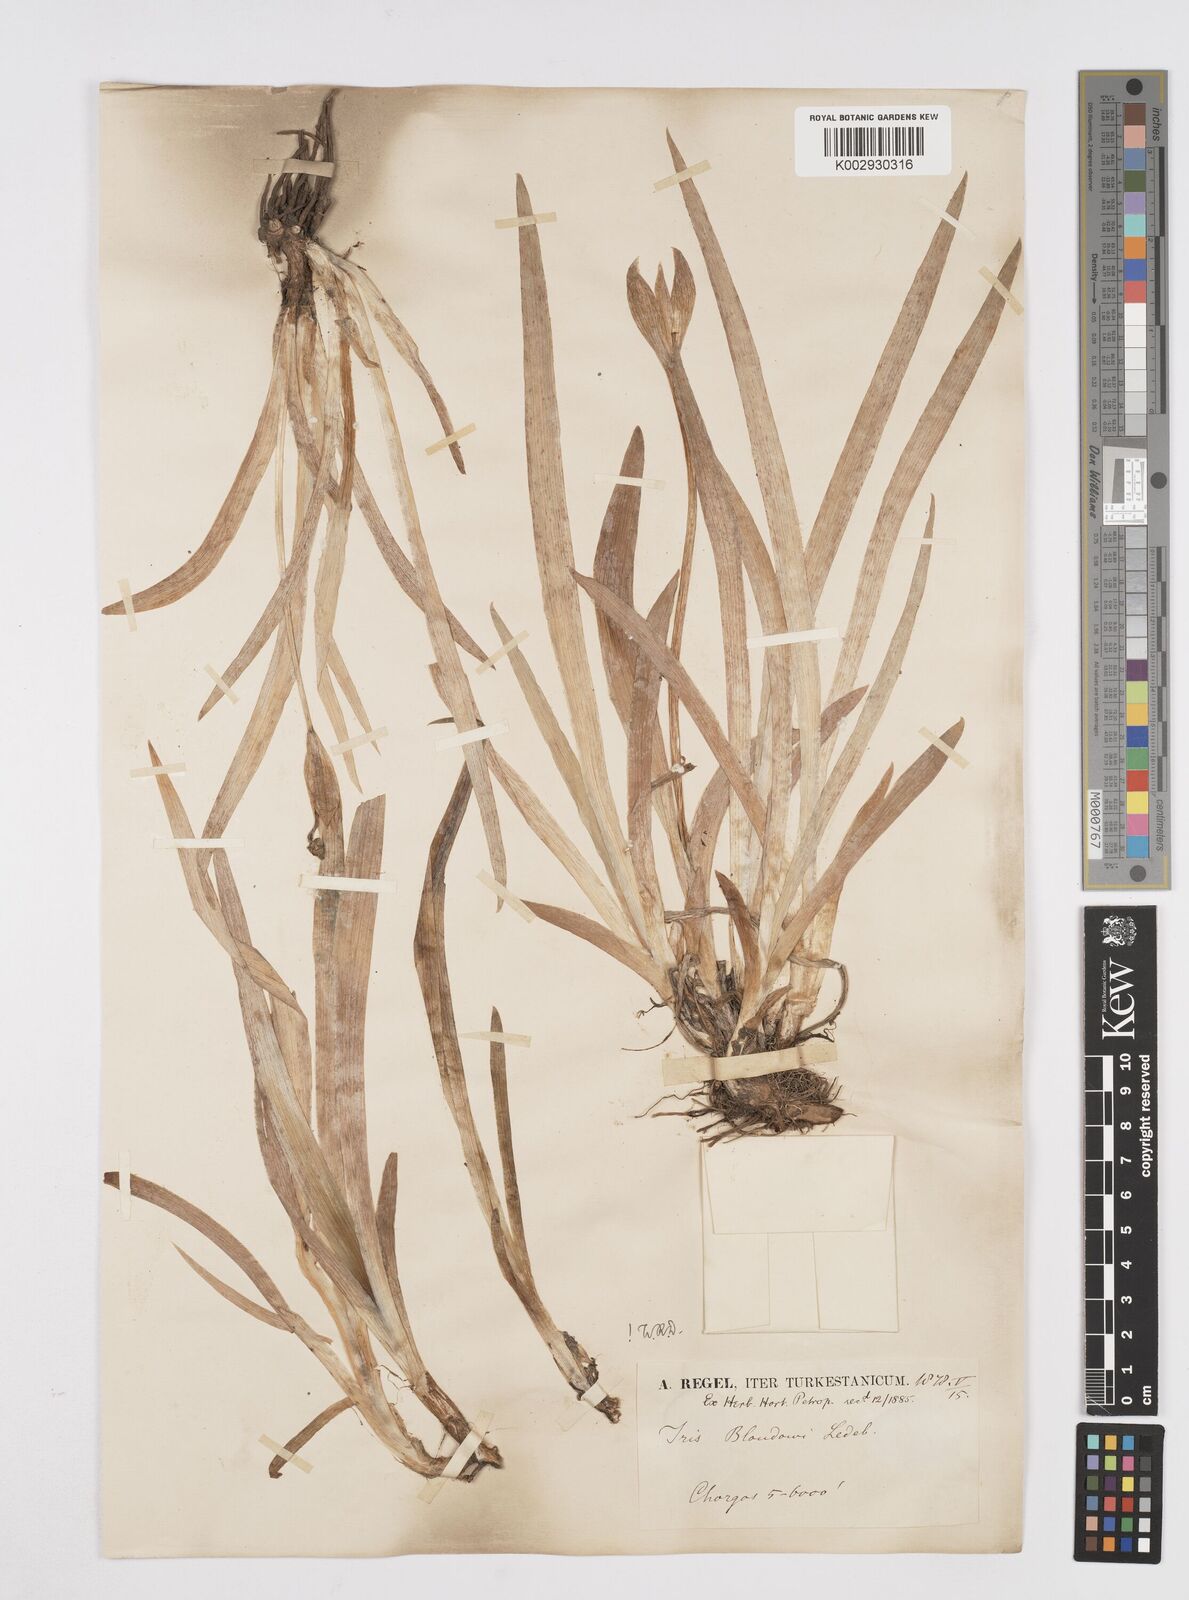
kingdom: Plantae
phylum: Tracheophyta
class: Liliopsida
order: Asparagales
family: Iridaceae
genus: Iris
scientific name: Iris bloudowii
